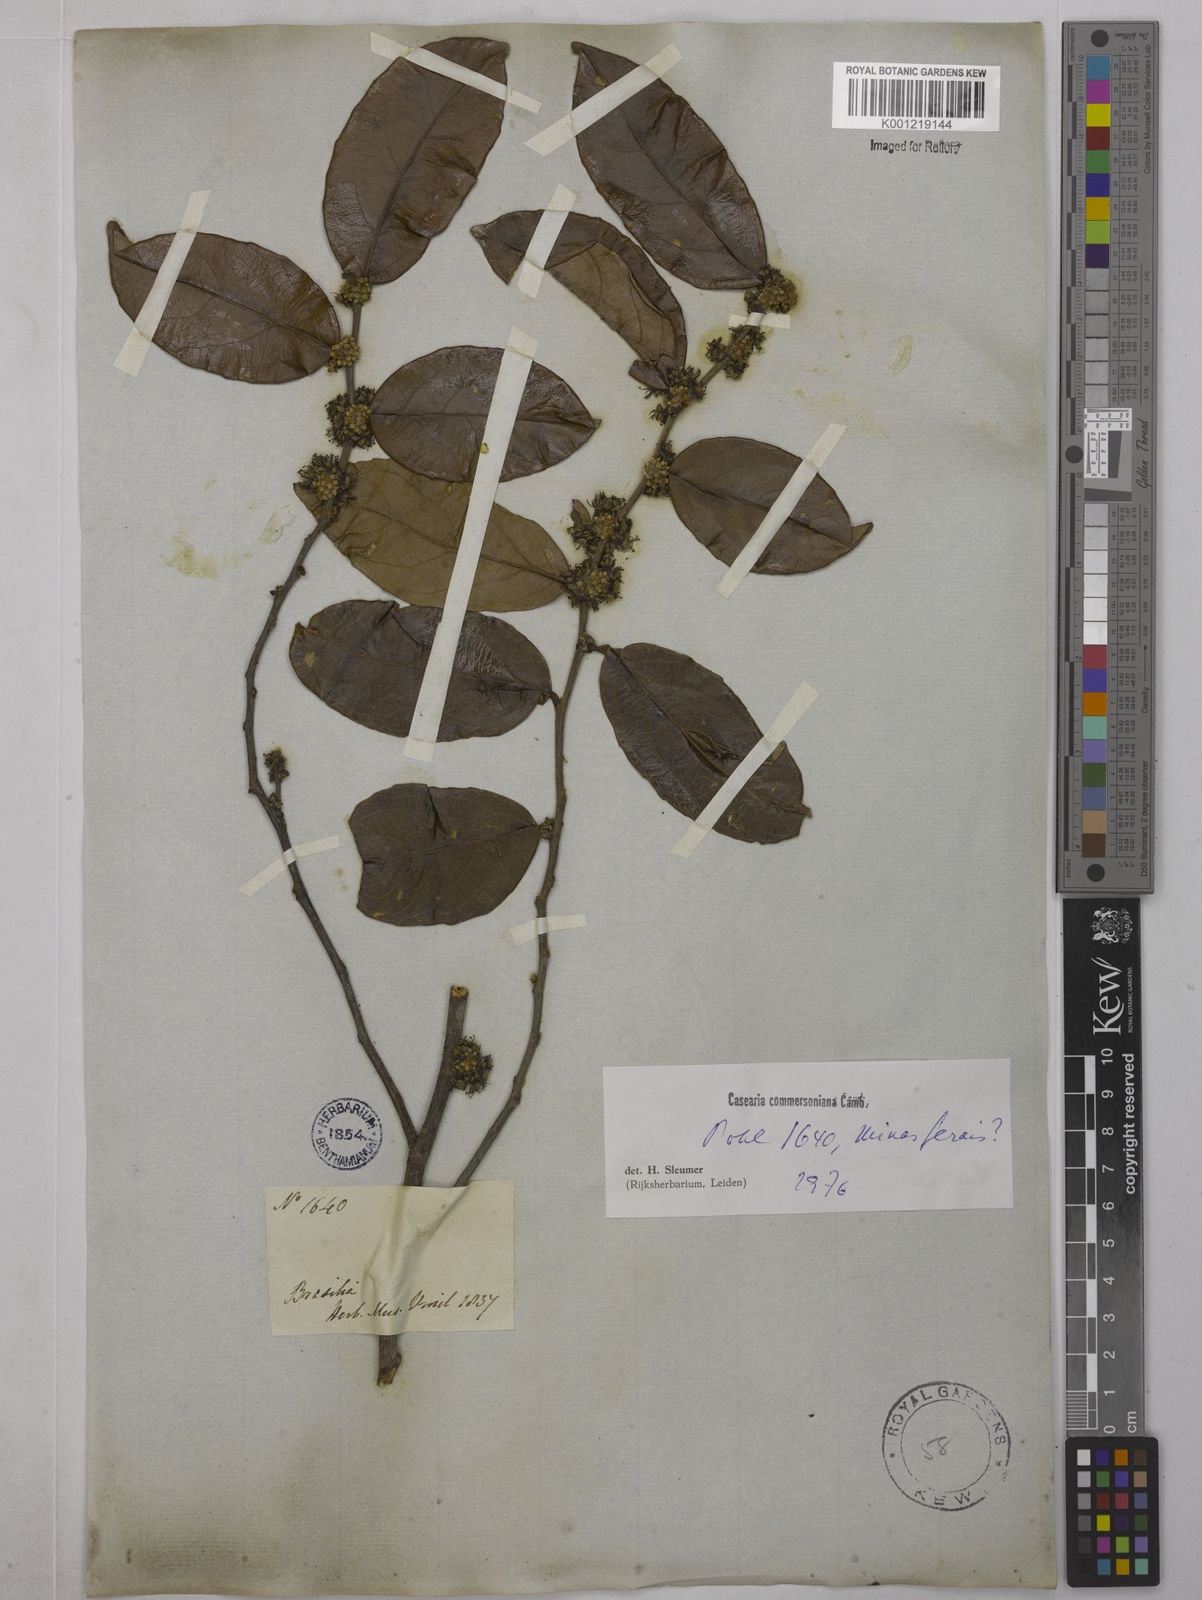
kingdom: Plantae
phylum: Tracheophyta
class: Magnoliopsida
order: Malpighiales
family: Salicaceae
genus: Piparea
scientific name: Piparea dentata
